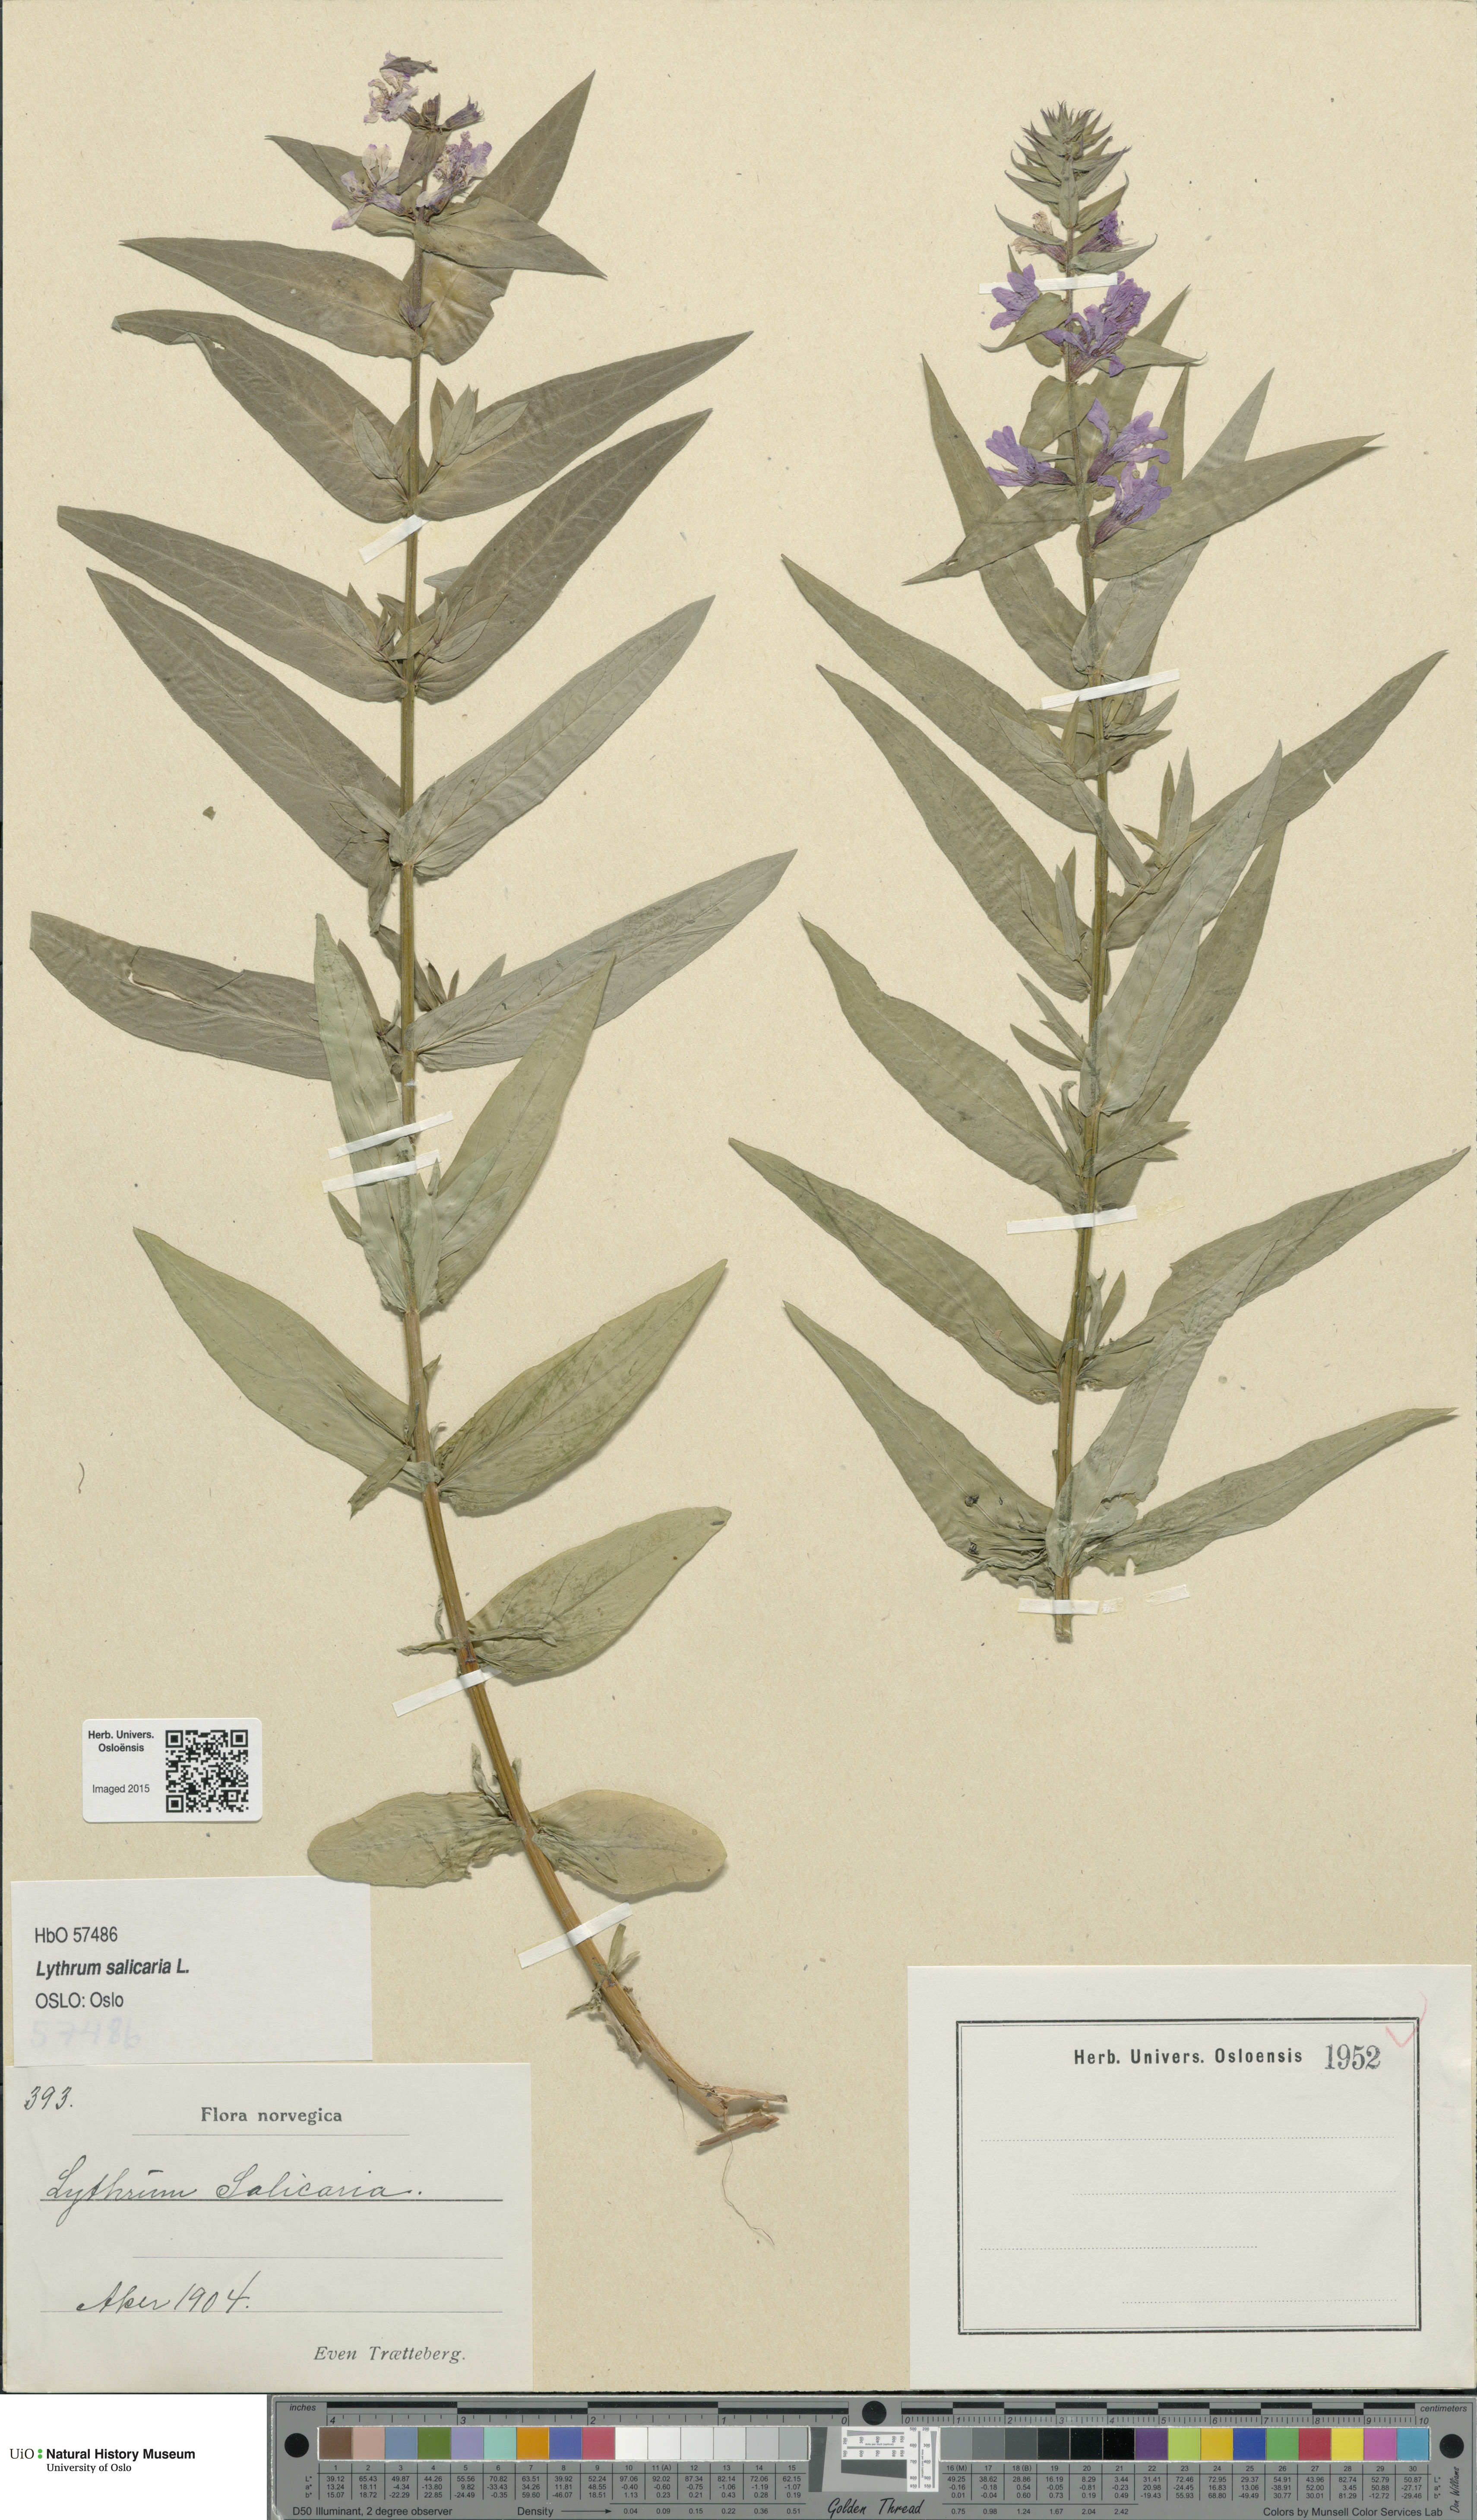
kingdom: Plantae
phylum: Tracheophyta
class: Magnoliopsida
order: Myrtales
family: Lythraceae
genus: Lythrum
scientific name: Lythrum salicaria
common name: Purple loosestrife
